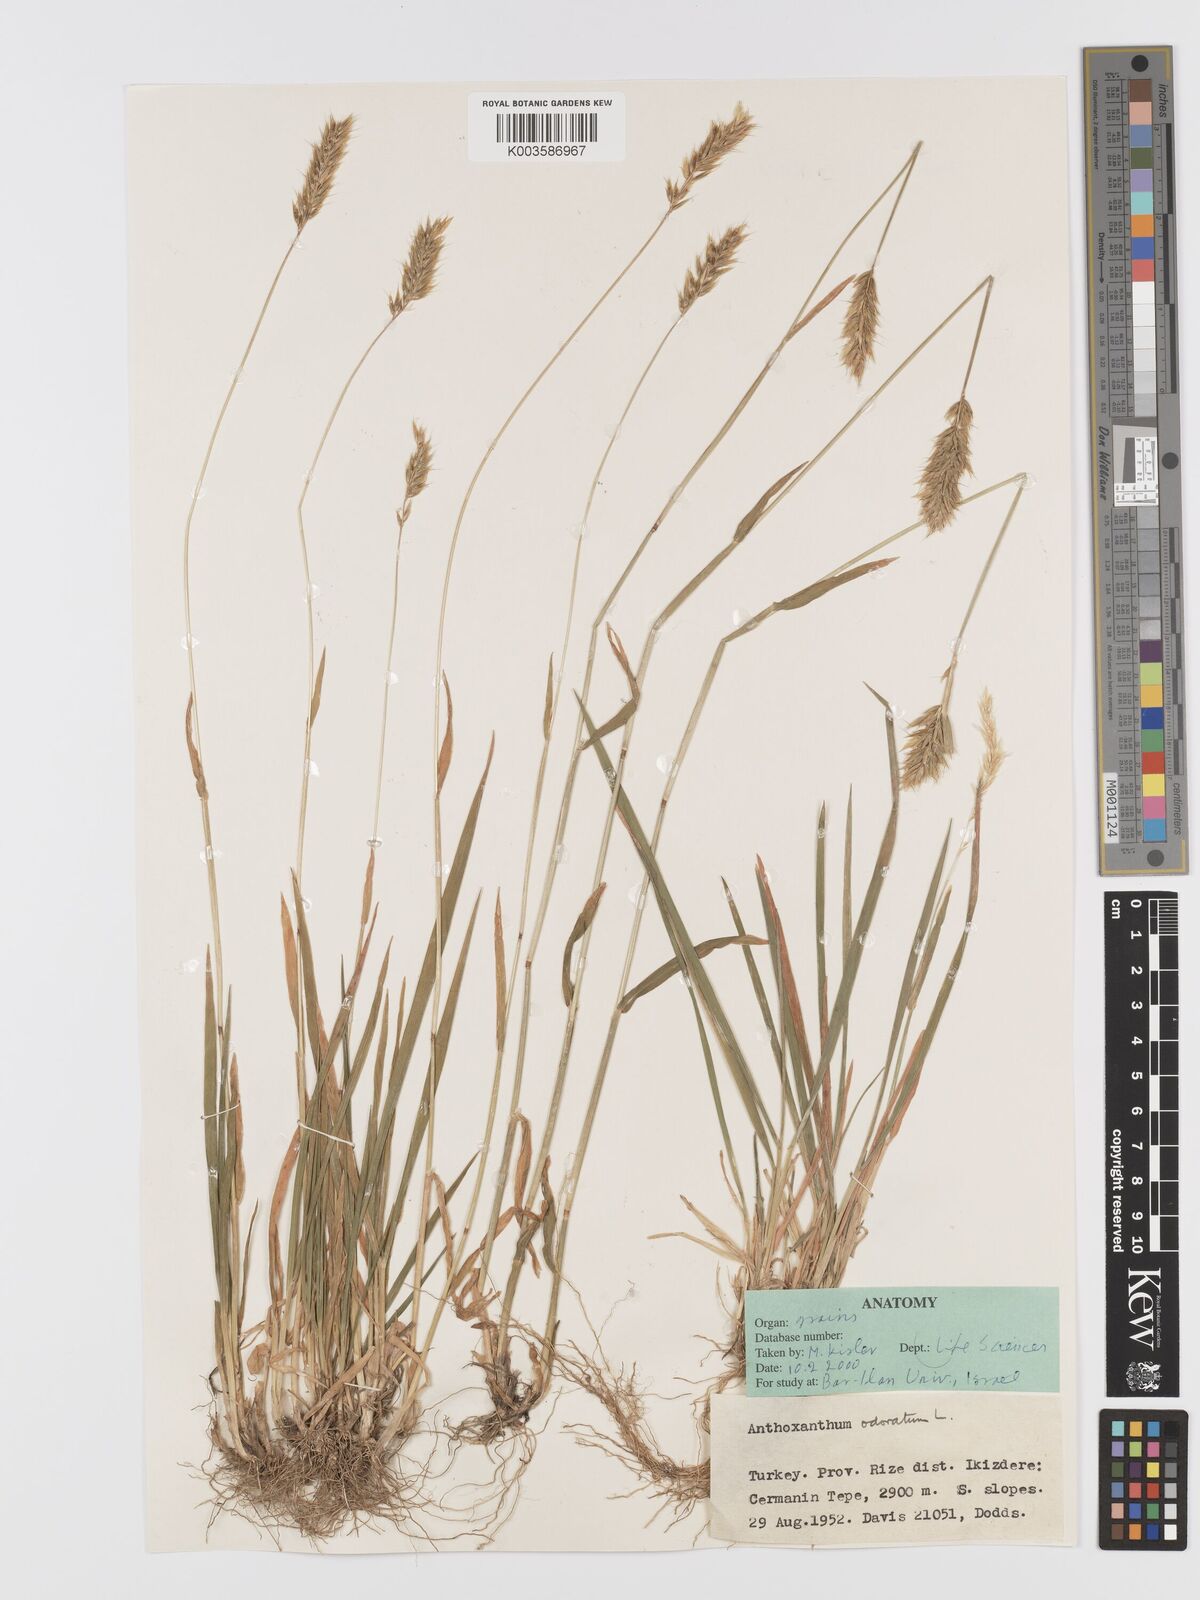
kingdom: Plantae
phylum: Tracheophyta
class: Liliopsida
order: Poales
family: Poaceae
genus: Anthoxanthum
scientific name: Anthoxanthum odoratum
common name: Sweet vernalgrass
